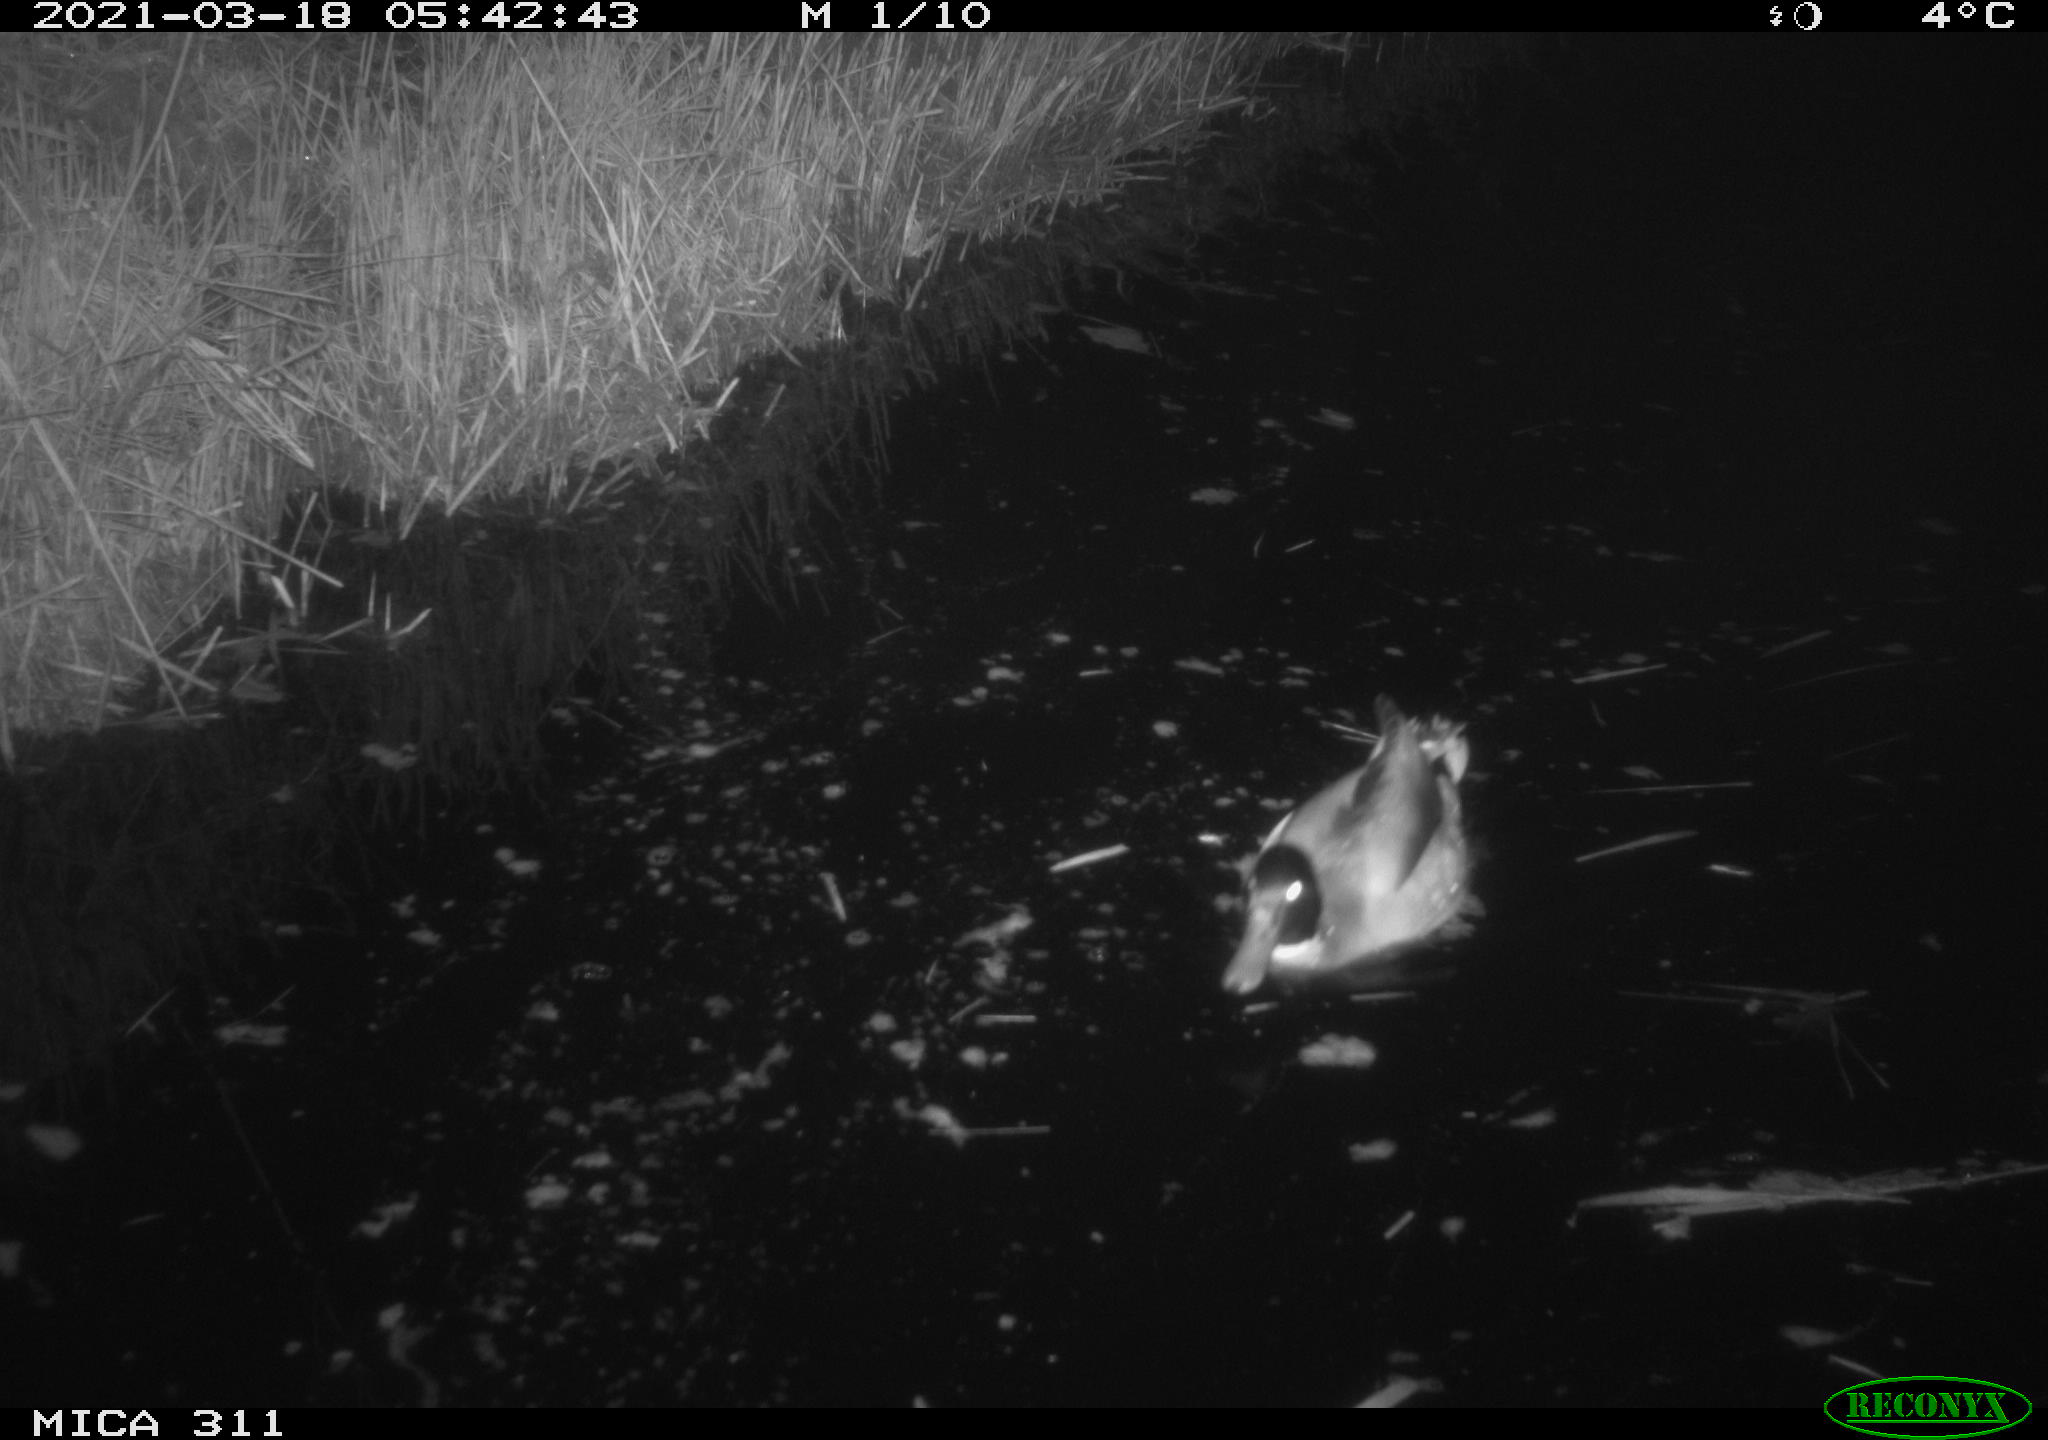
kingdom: Animalia
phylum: Chordata
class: Aves
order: Anseriformes
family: Anatidae
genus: Anas
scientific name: Anas
